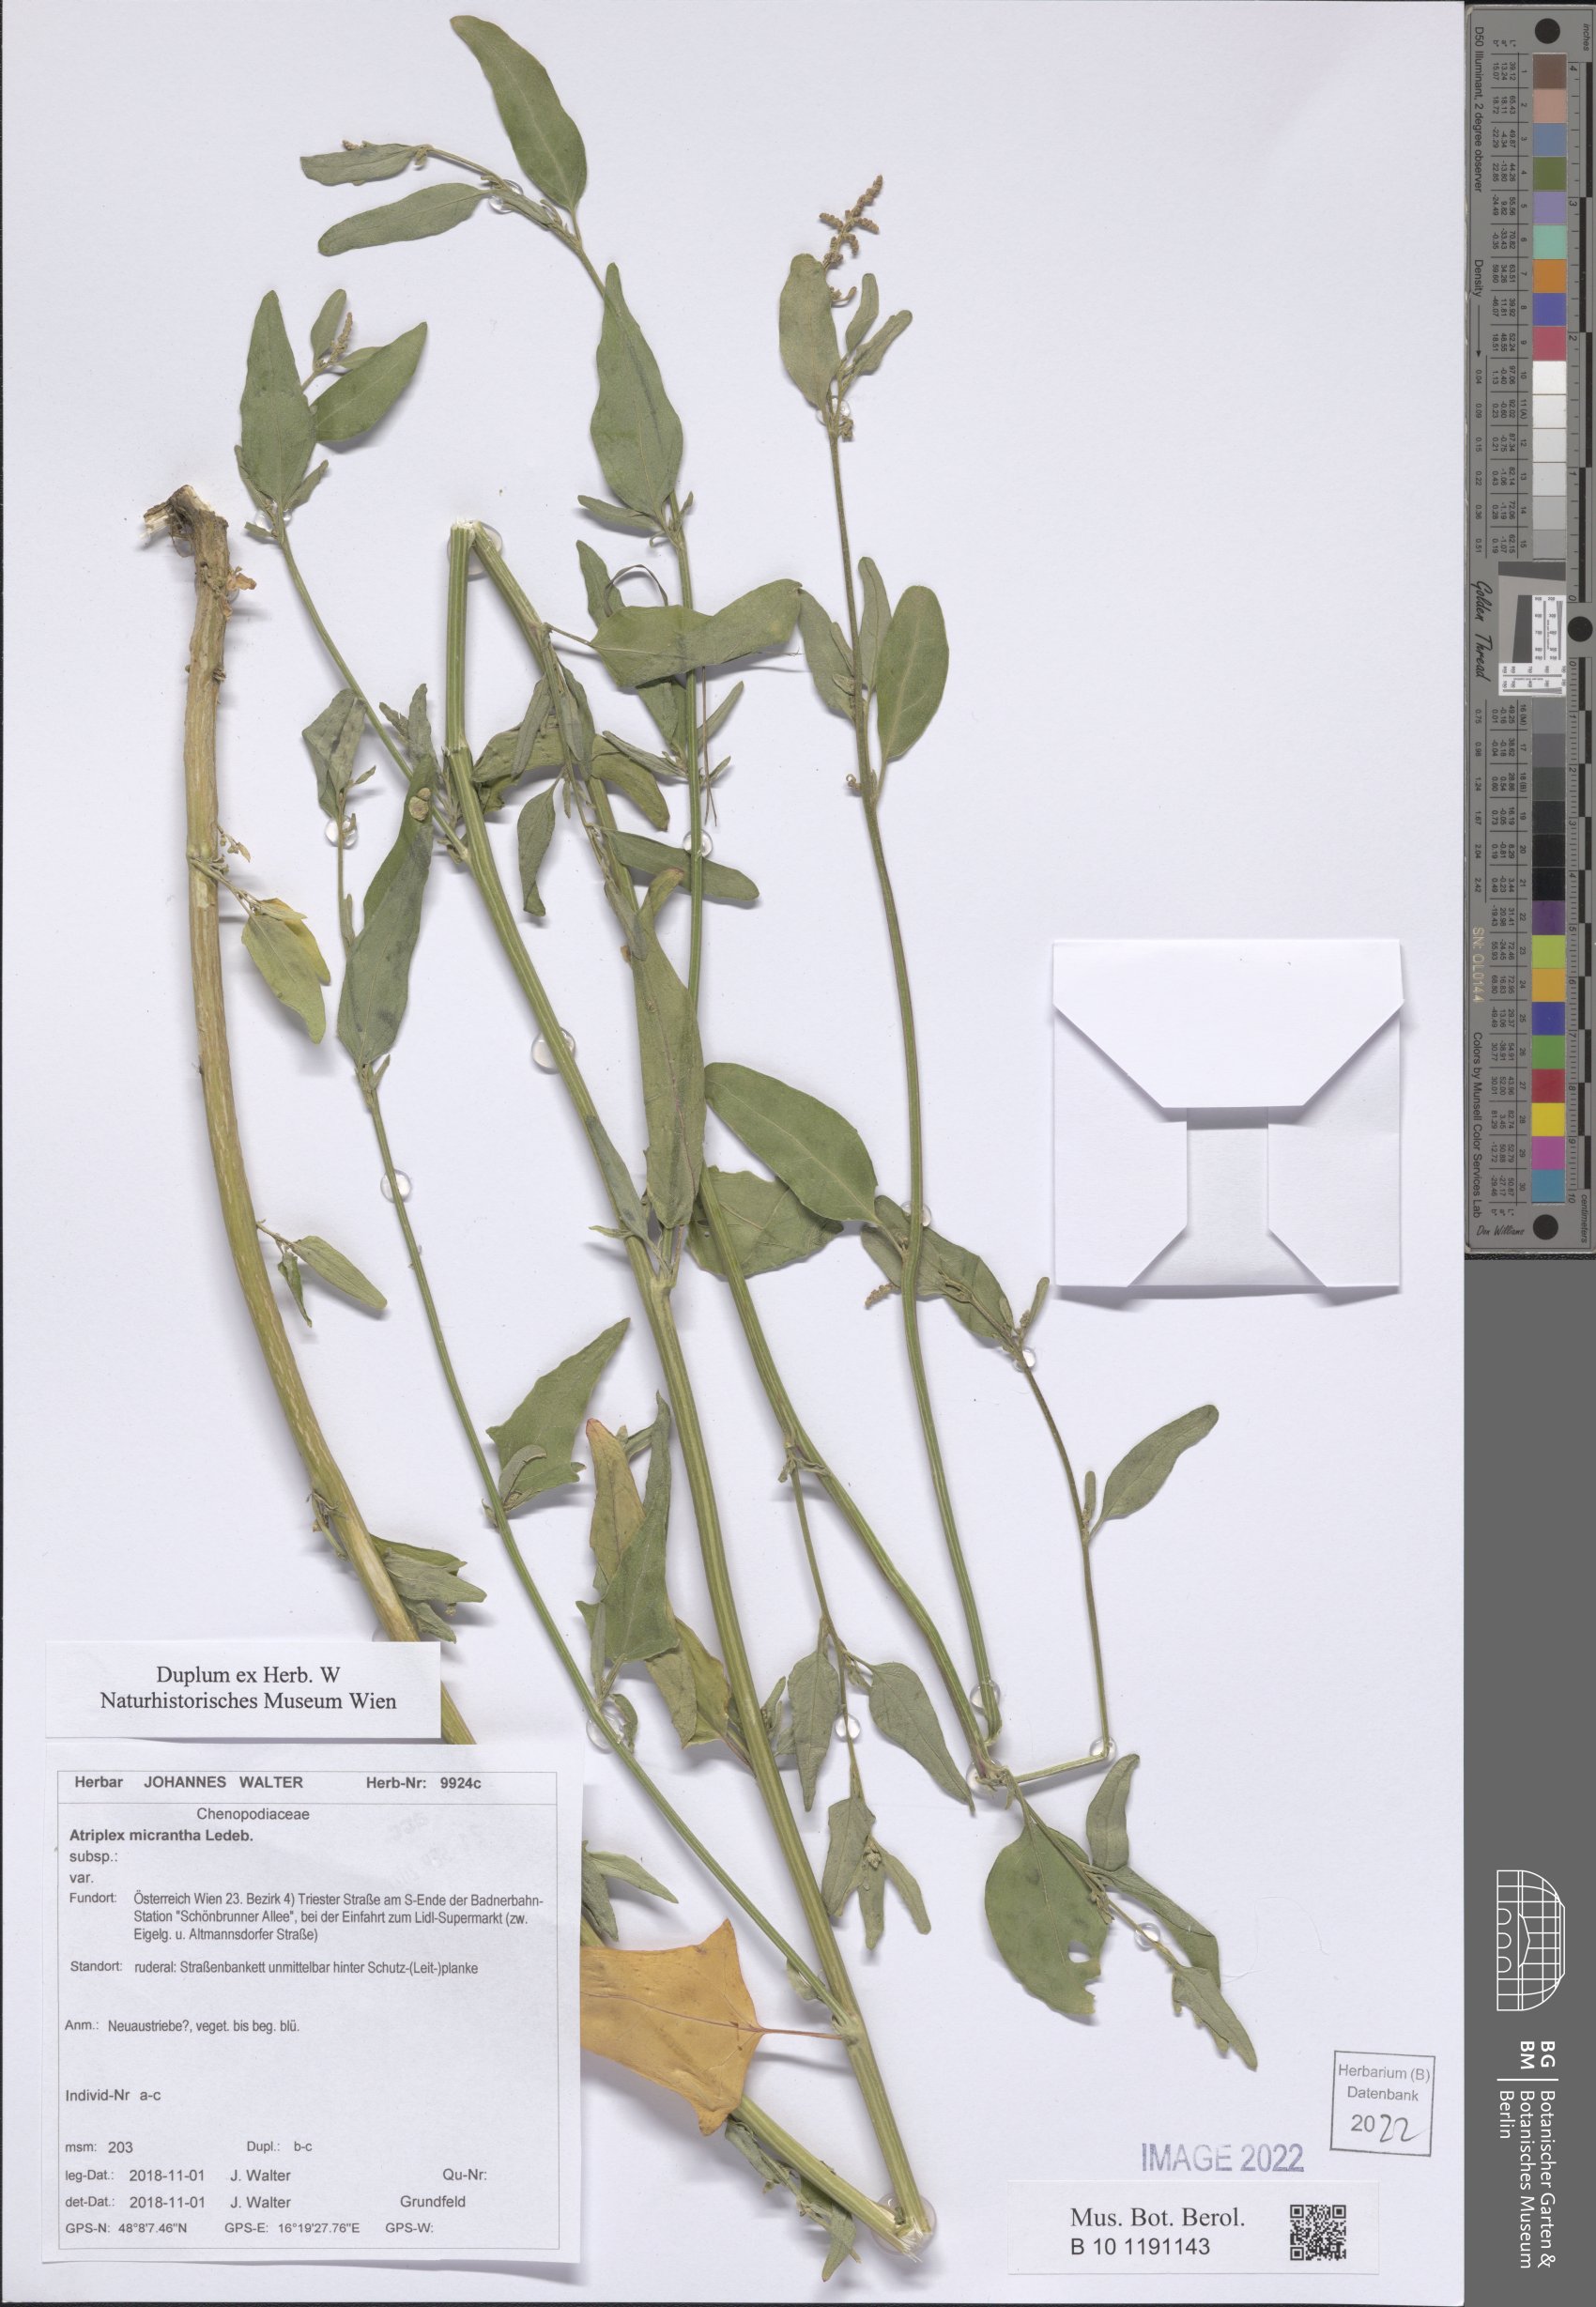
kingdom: Plantae
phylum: Tracheophyta
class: Magnoliopsida
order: Caryophyllales
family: Amaranthaceae
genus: Atriplex
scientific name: Atriplex micrantha
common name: Twoscale saltbush
